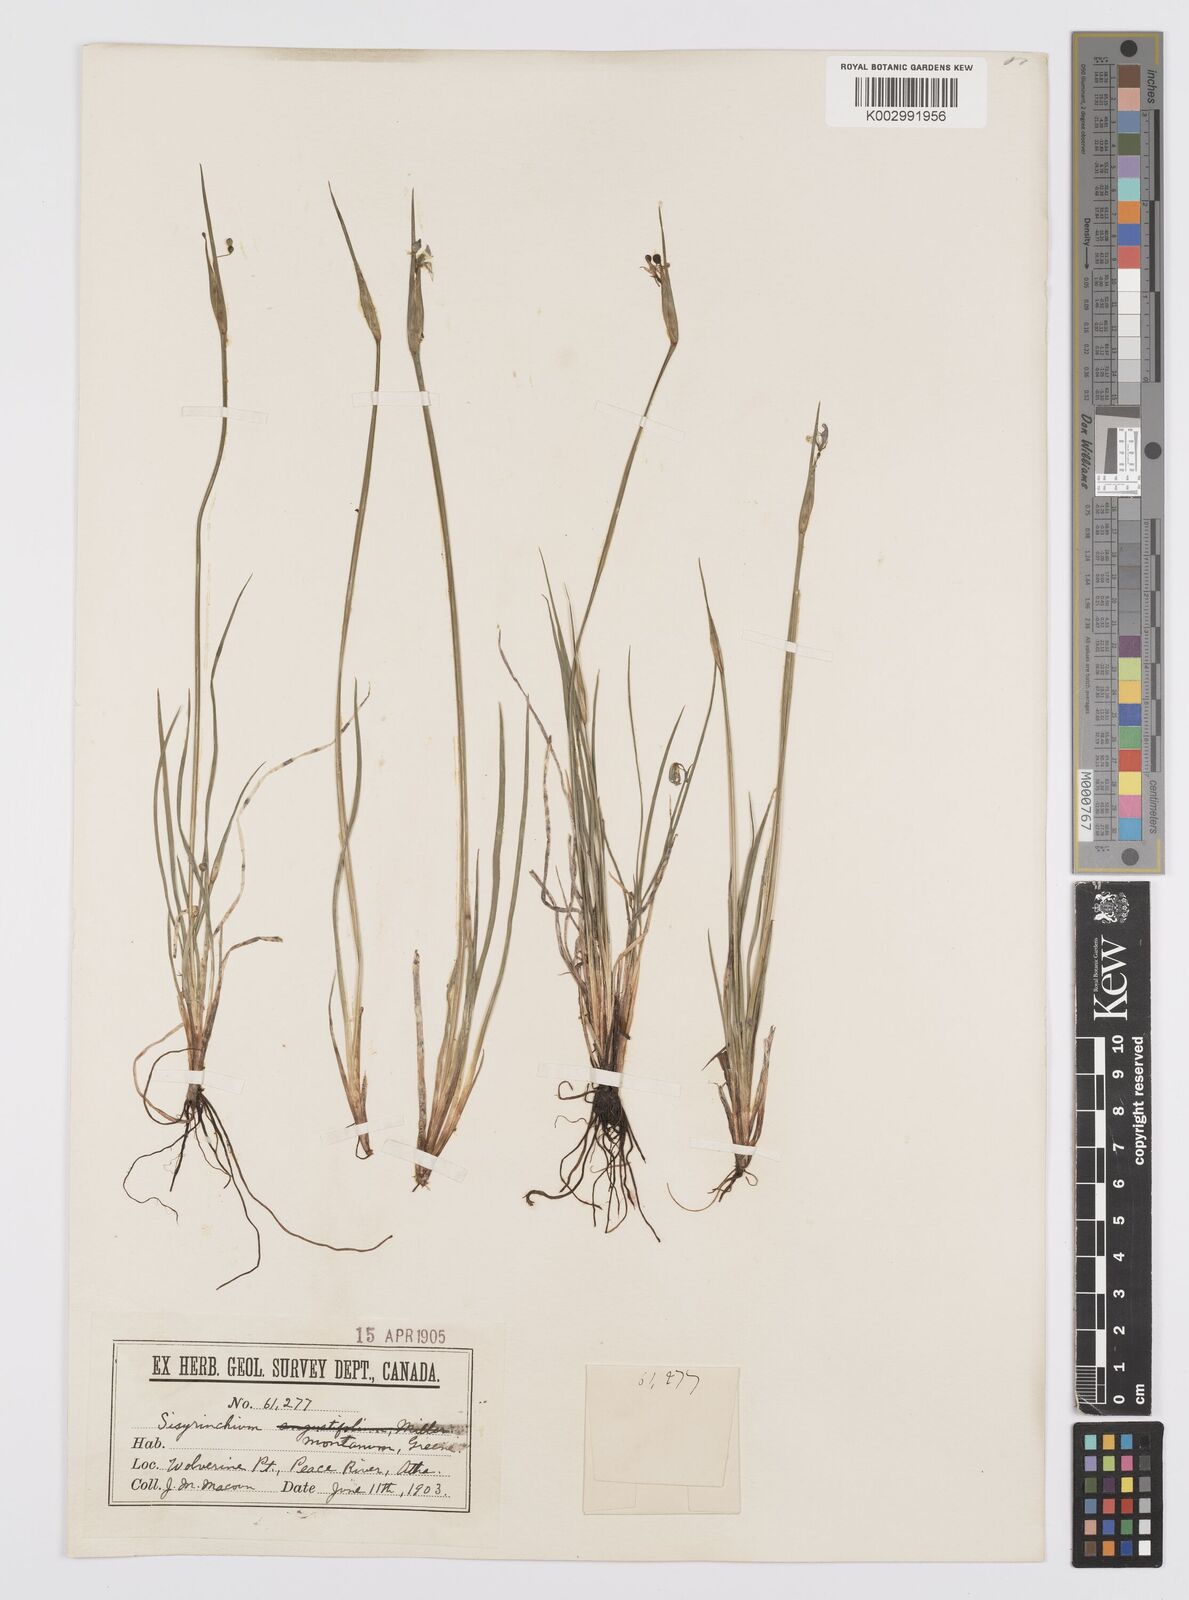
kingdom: Plantae
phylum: Tracheophyta
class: Liliopsida
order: Asparagales
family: Iridaceae
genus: Sisyrinchium
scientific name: Sisyrinchium montanum
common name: American blue-eyed-grass
